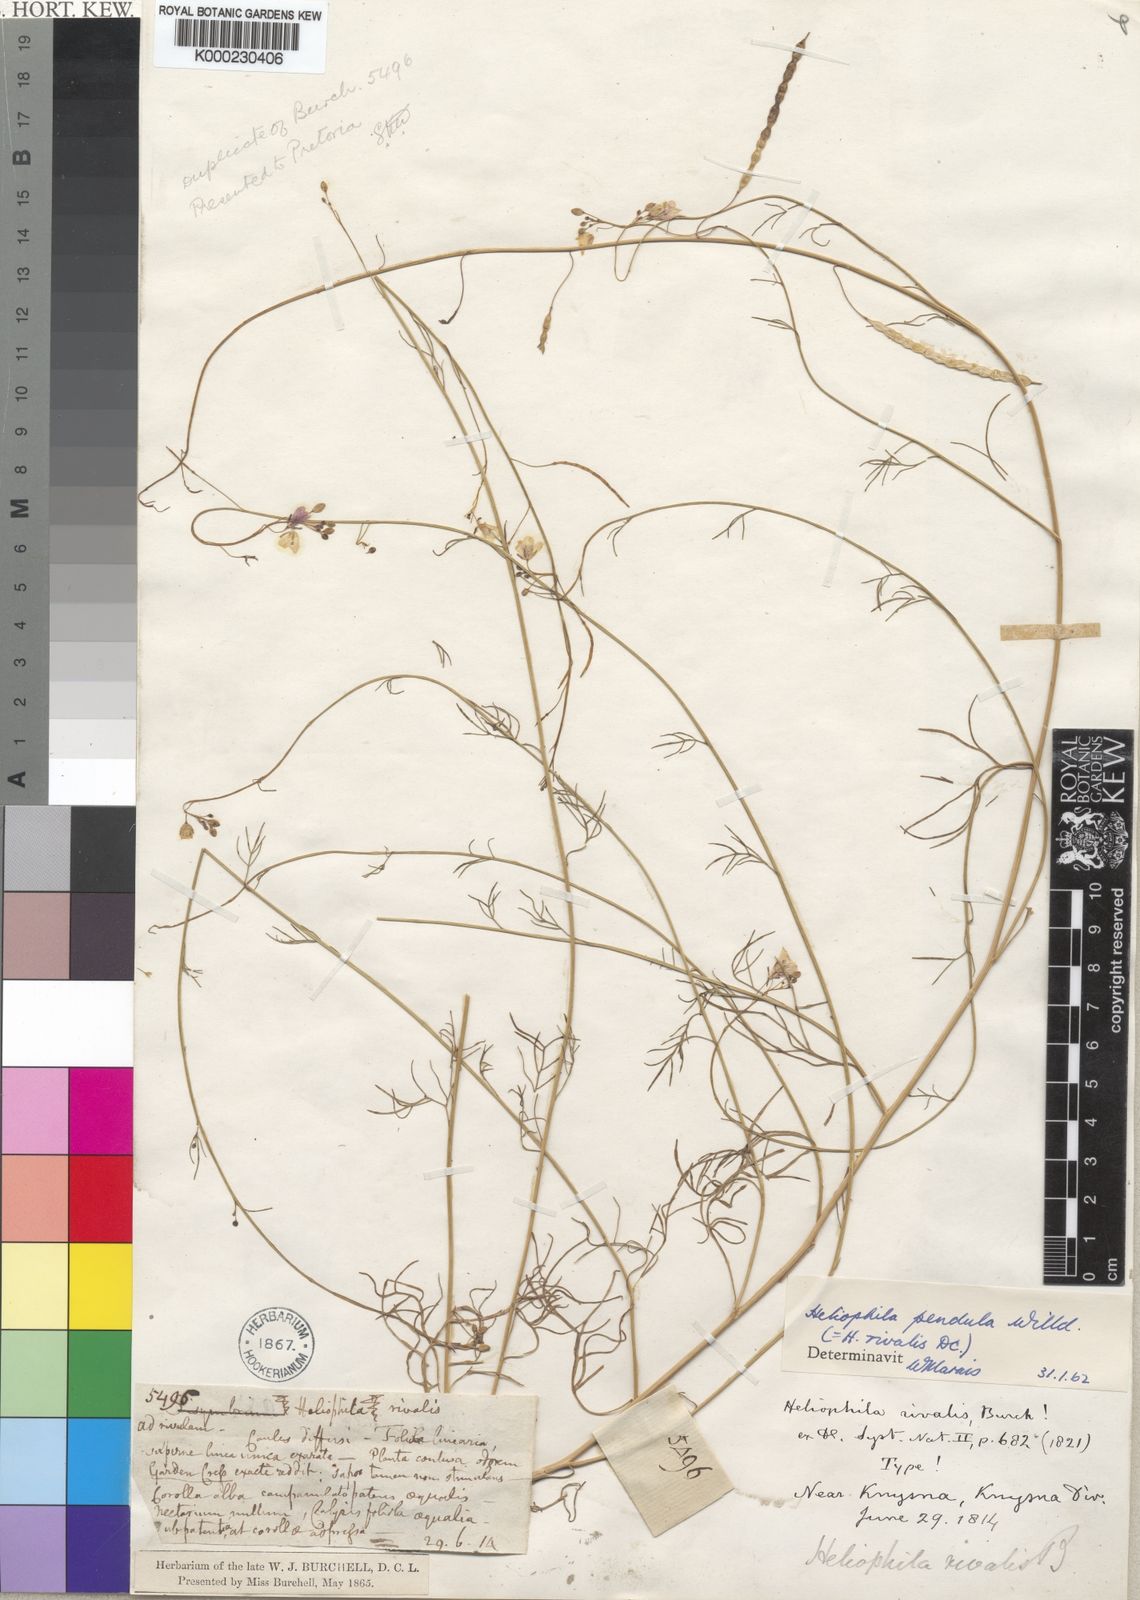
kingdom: Plantae
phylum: Tracheophyta
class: Magnoliopsida
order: Brassicales
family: Brassicaceae
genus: Heliophila
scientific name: Heliophila pendula
